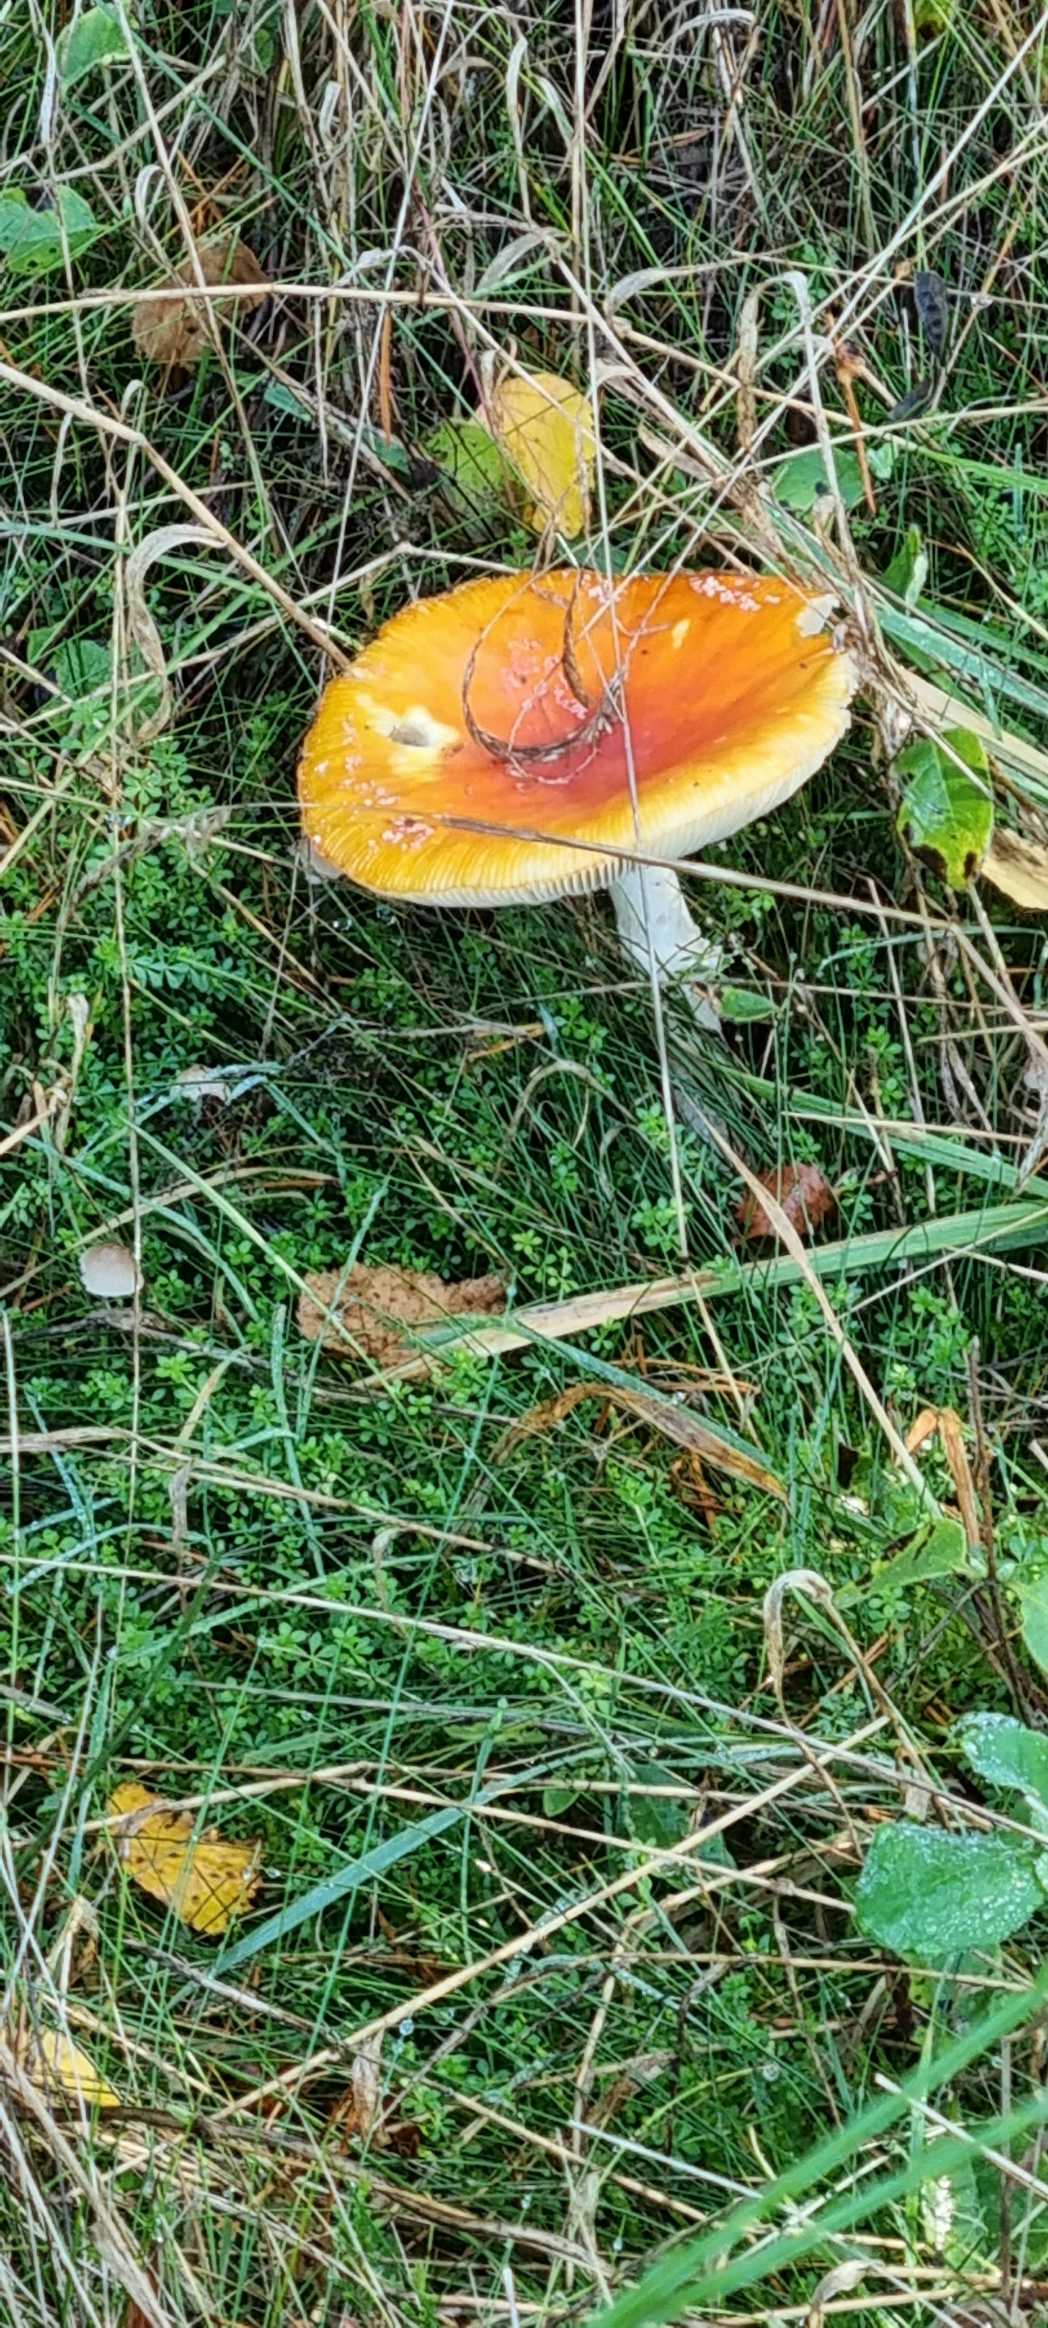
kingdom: Fungi
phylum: Basidiomycota
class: Agaricomycetes
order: Agaricales
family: Amanitaceae
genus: Amanita
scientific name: Amanita muscaria
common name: Rød fluesvamp
